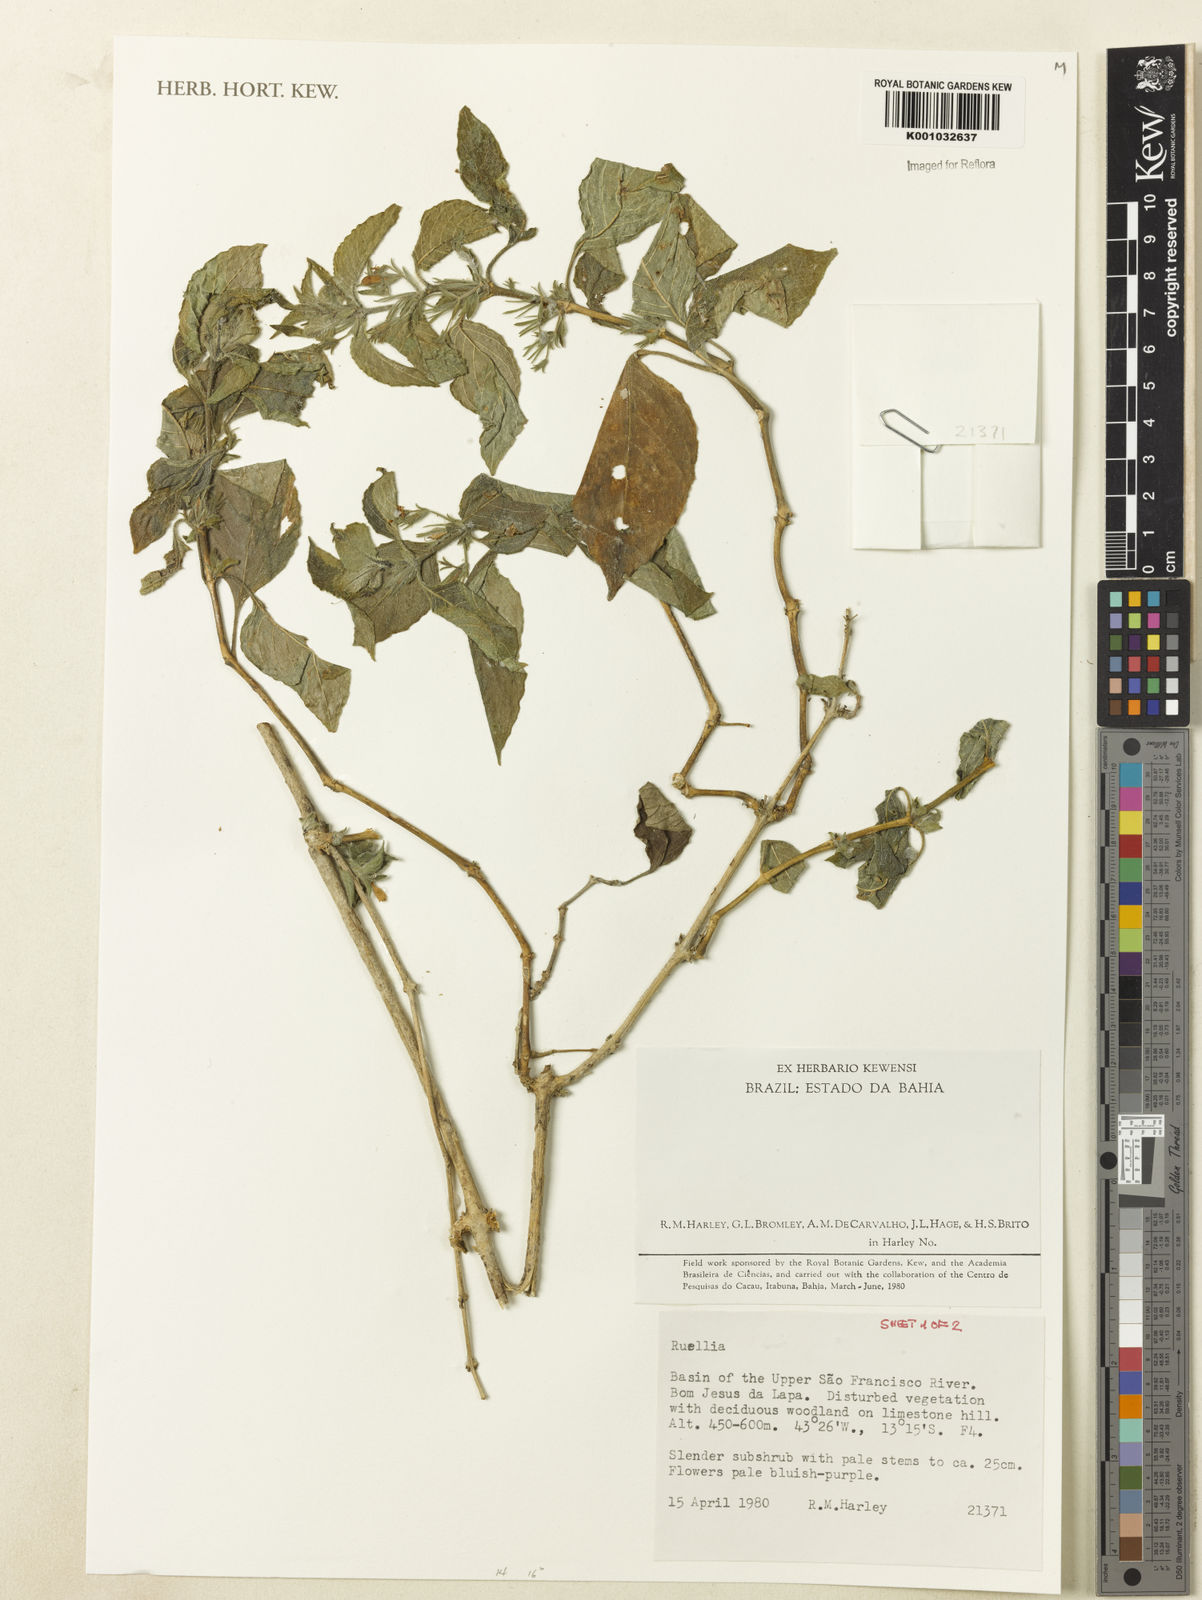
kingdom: Plantae
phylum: Tracheophyta
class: Magnoliopsida
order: Lamiales
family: Acanthaceae
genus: Ruellia
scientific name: Ruellia
